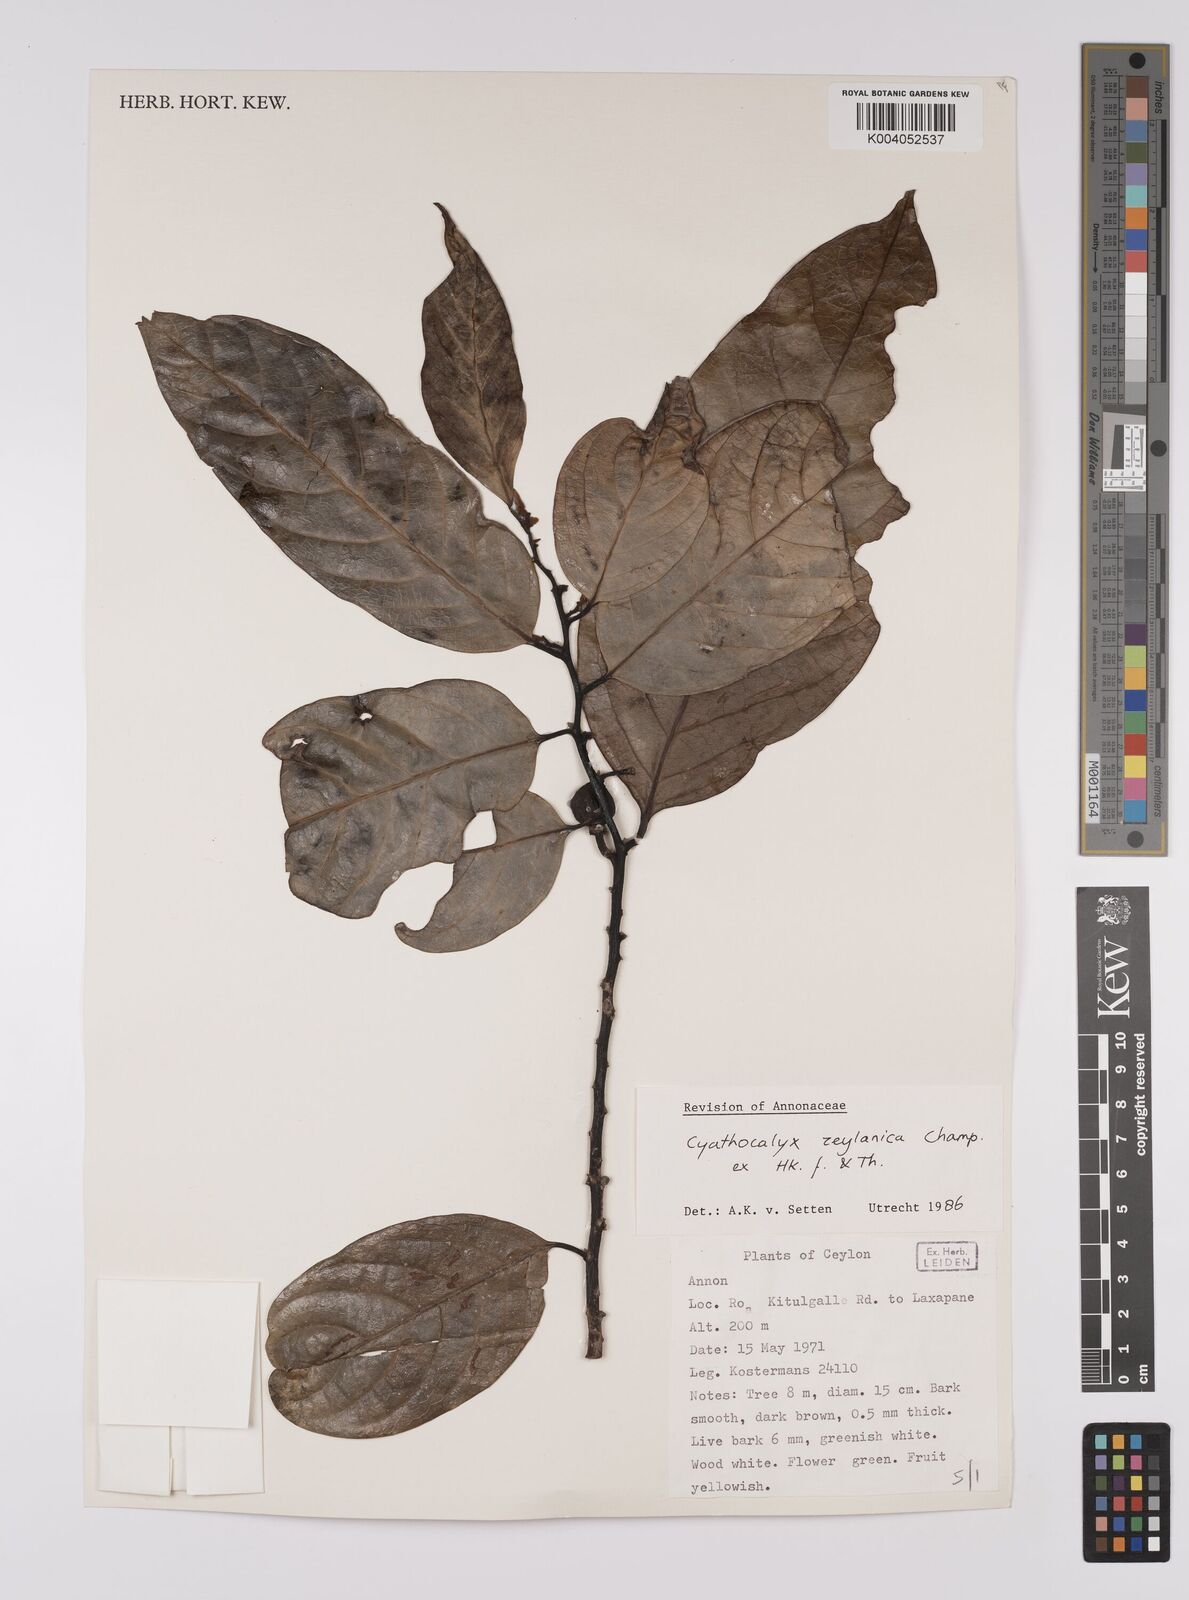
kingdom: Plantae
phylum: Tracheophyta
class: Magnoliopsida
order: Magnoliales
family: Annonaceae
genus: Cyathocalyx
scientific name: Cyathocalyx zeylanicus
